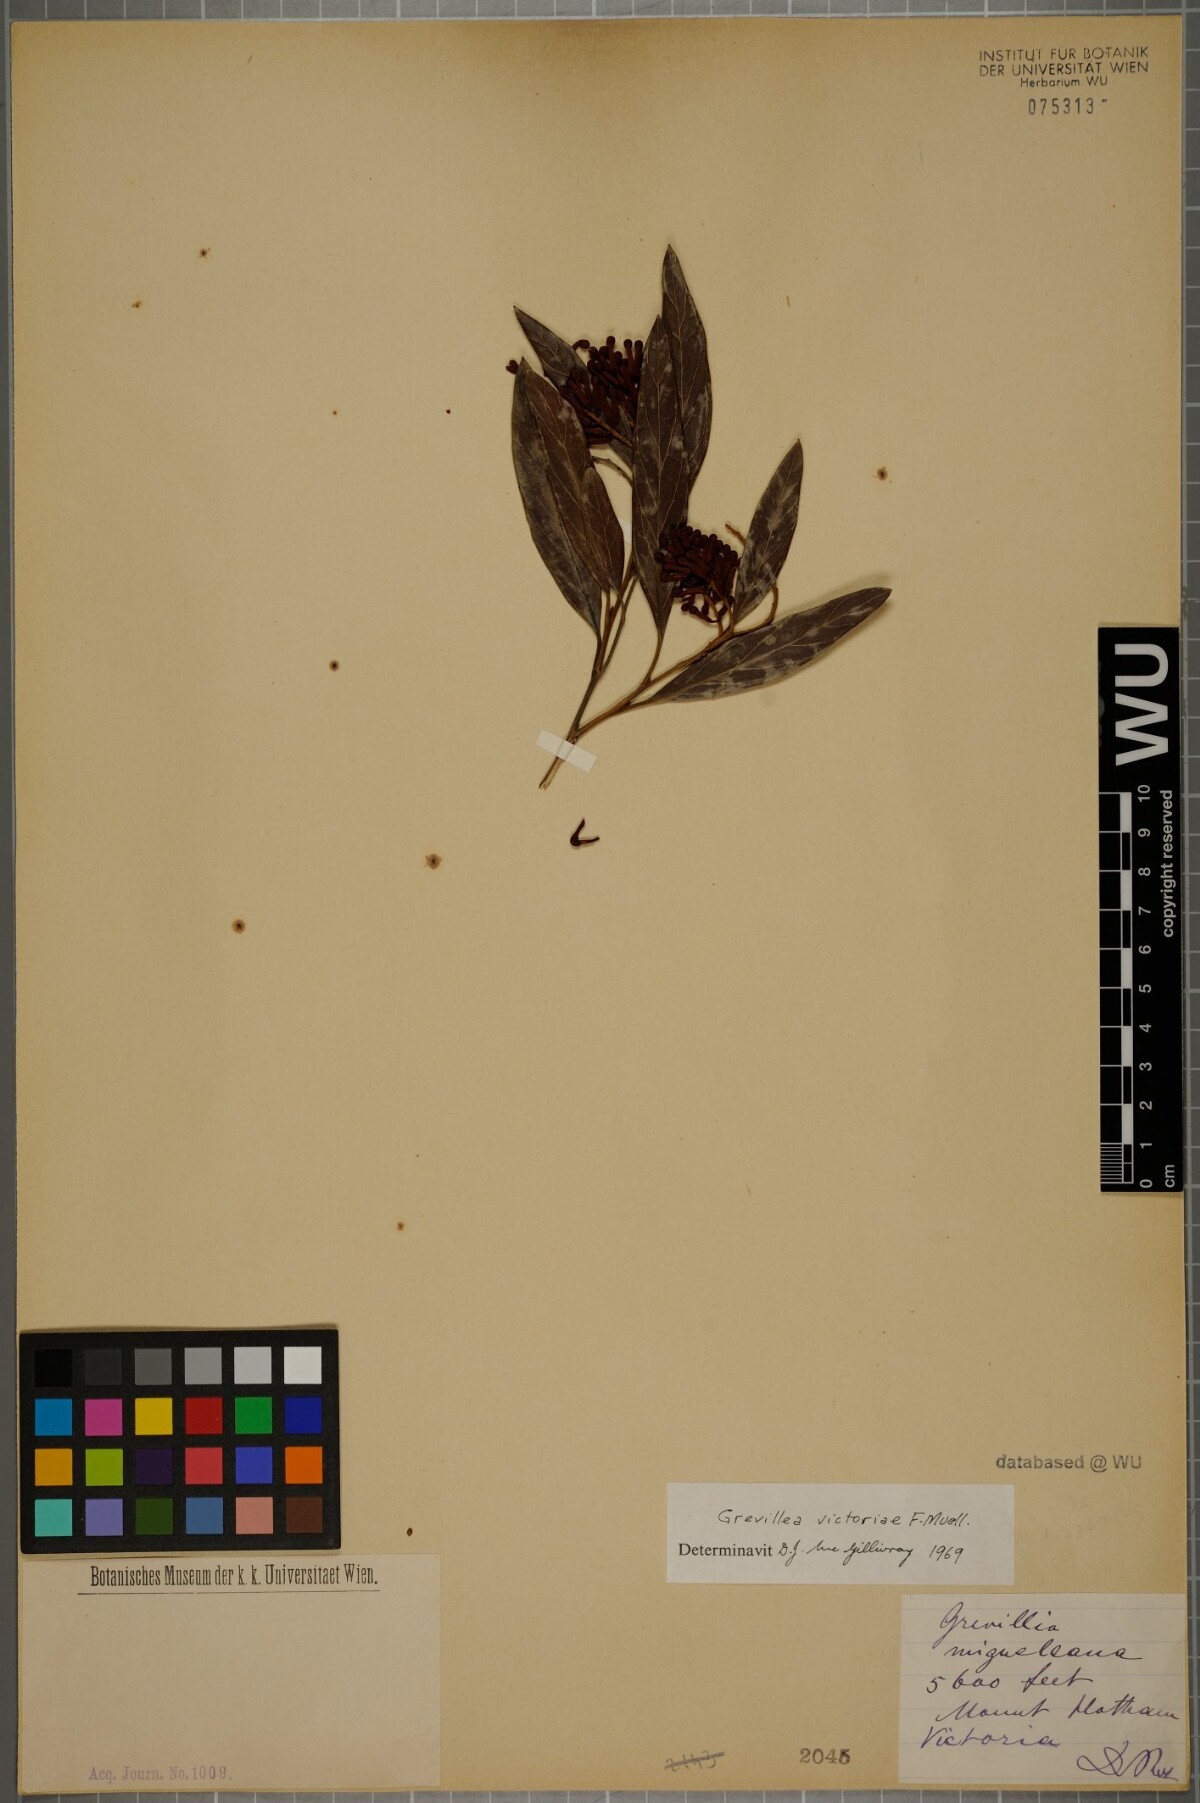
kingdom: Plantae
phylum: Tracheophyta
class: Magnoliopsida
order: Proteales
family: Proteaceae
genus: Grevillea
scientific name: Grevillea victoriae
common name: Royal grevillea
